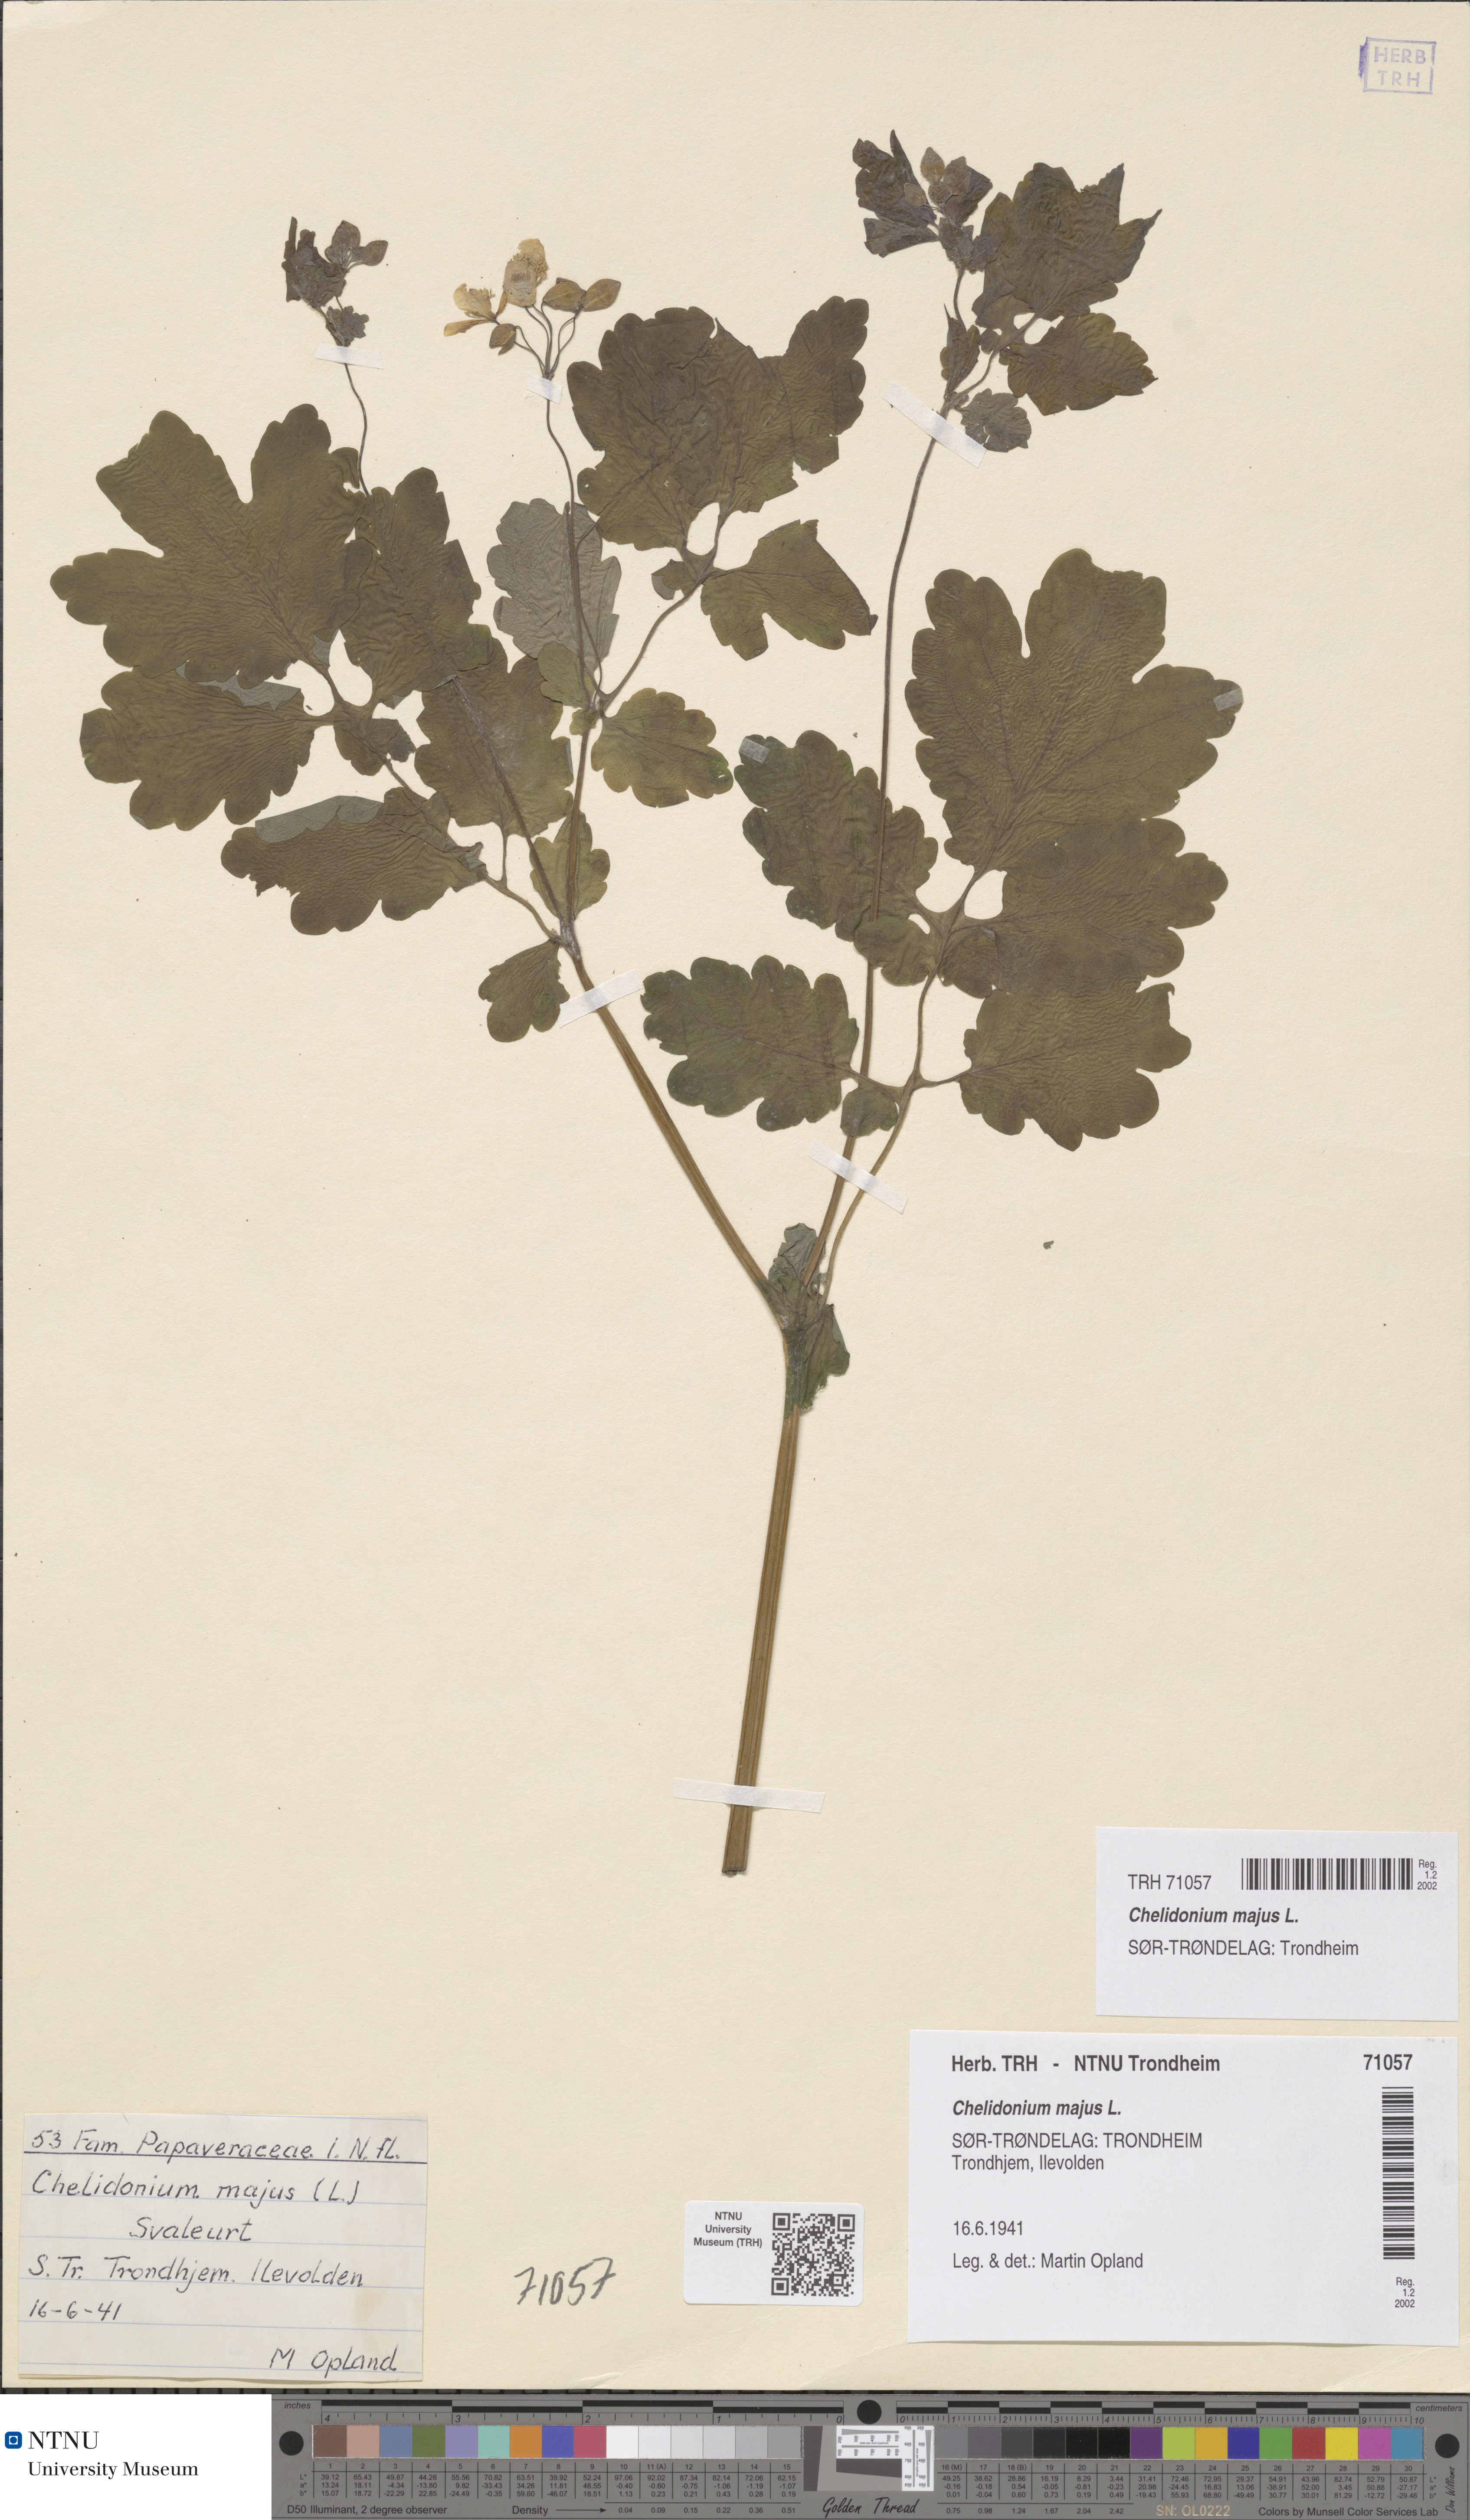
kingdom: Plantae
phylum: Tracheophyta
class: Magnoliopsida
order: Ranunculales
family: Papaveraceae
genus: Chelidonium
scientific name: Chelidonium majus
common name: Greater celandine
